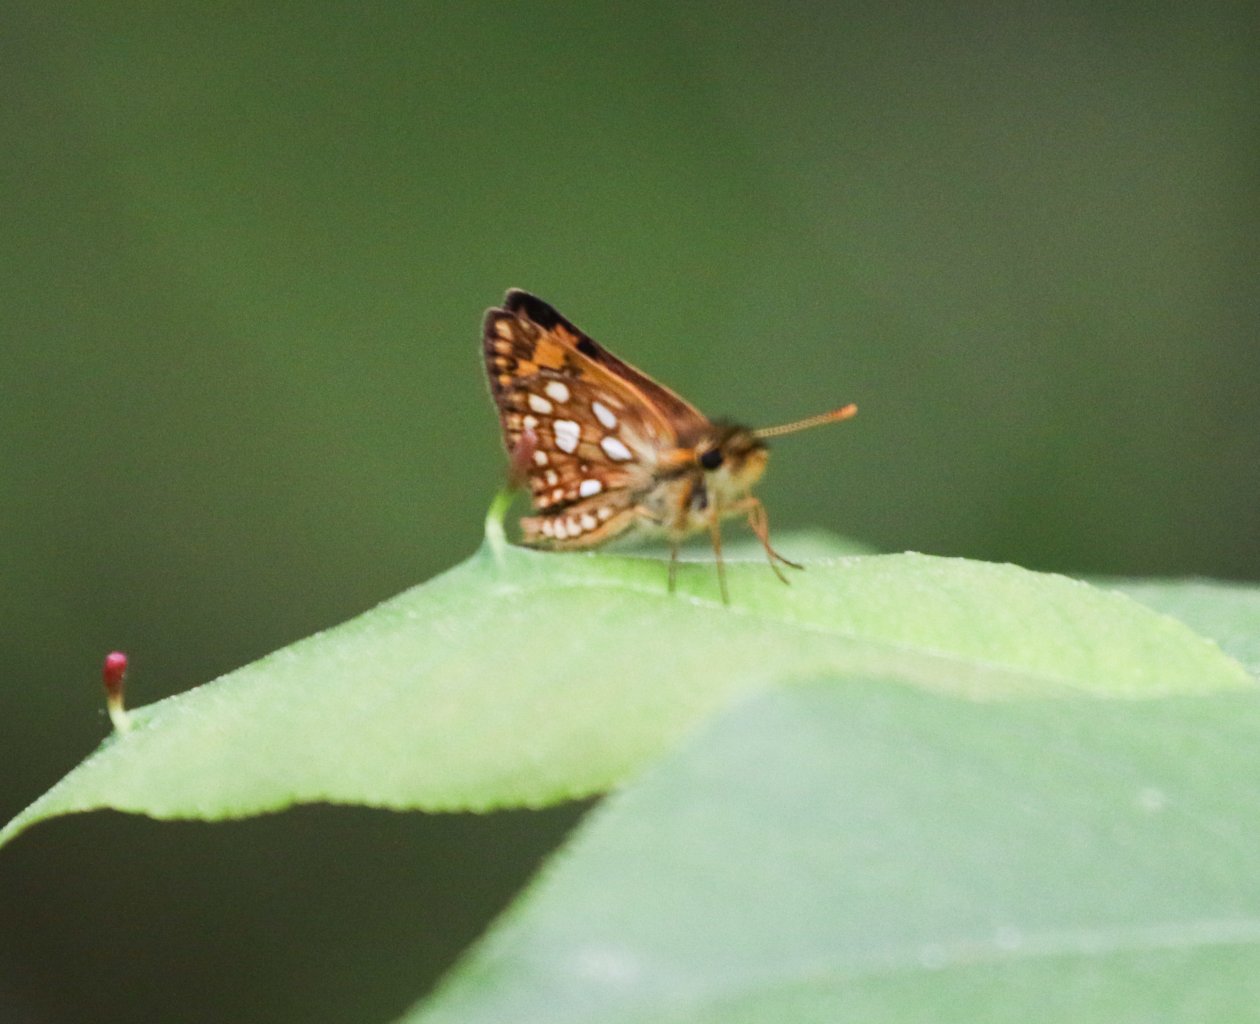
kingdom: Animalia
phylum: Arthropoda
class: Insecta
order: Lepidoptera
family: Hesperiidae
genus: Carterocephalus
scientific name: Carterocephalus palaemon
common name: Chequered Skipper
